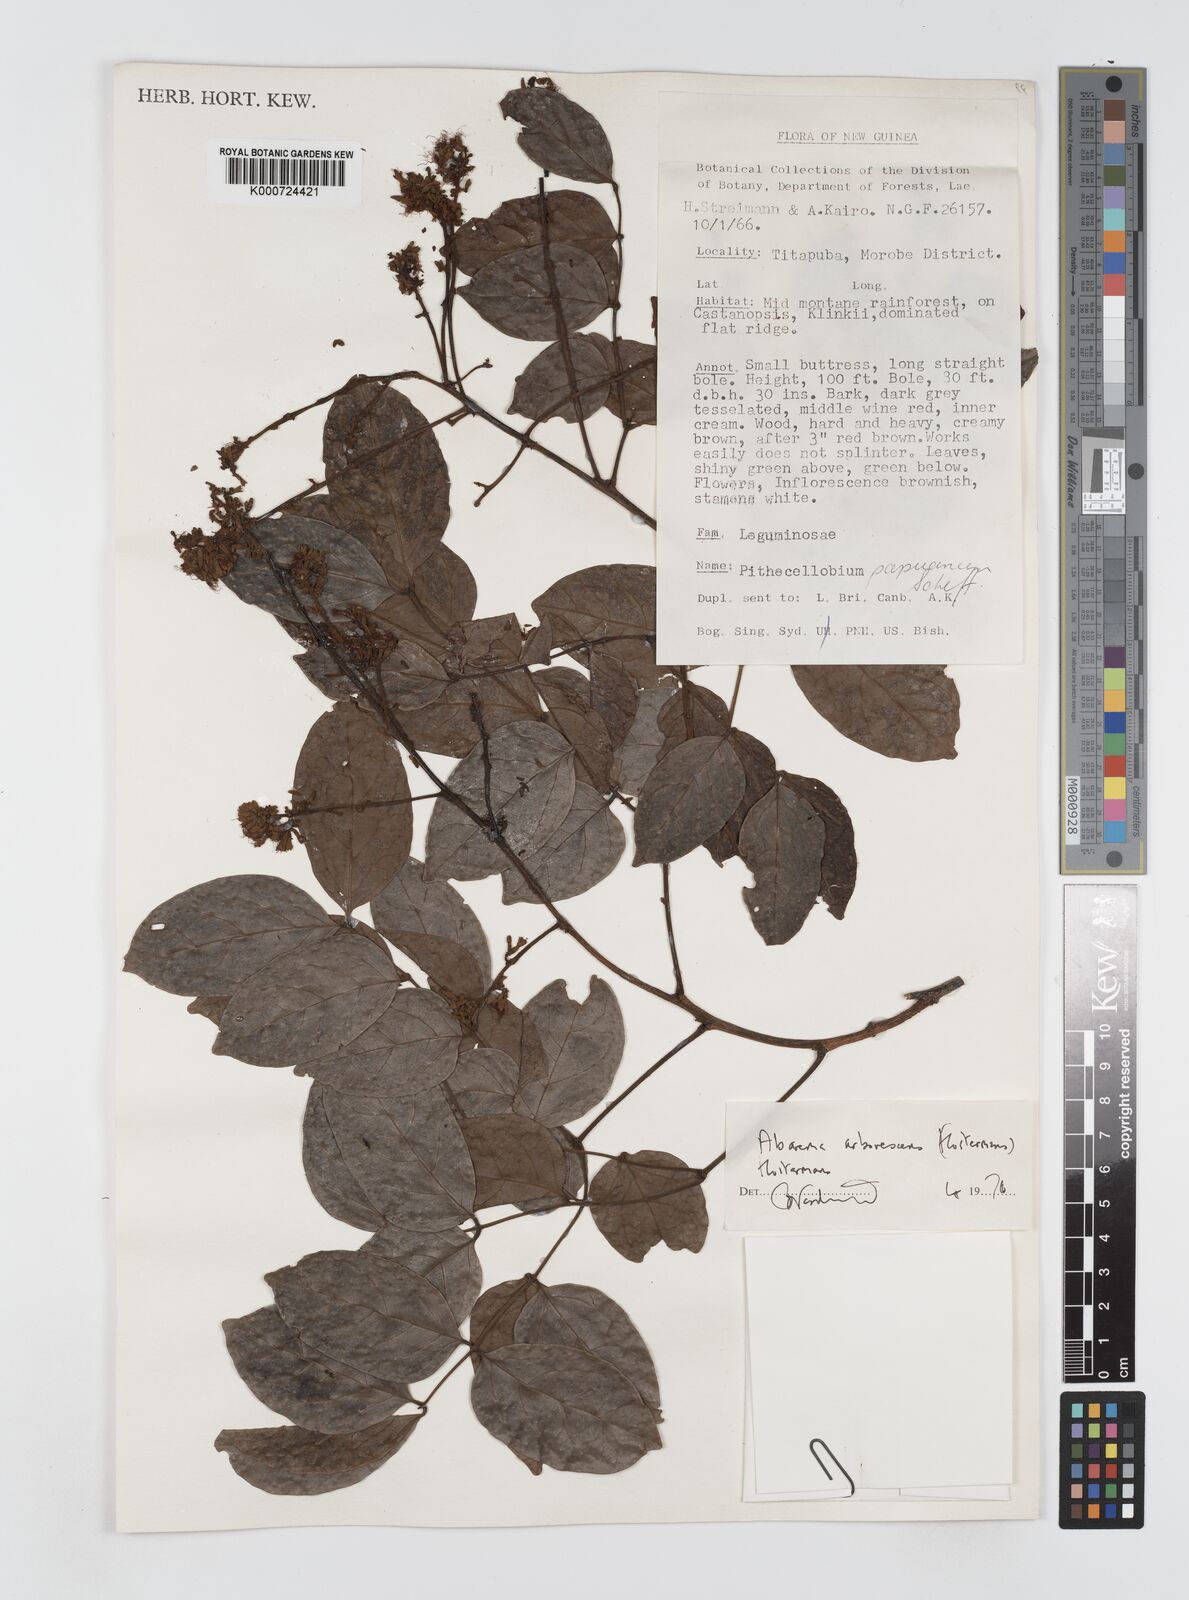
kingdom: Plantae
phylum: Tracheophyta
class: Magnoliopsida
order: Fabales
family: Fabaceae
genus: Archidendron
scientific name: Archidendron arborescens
